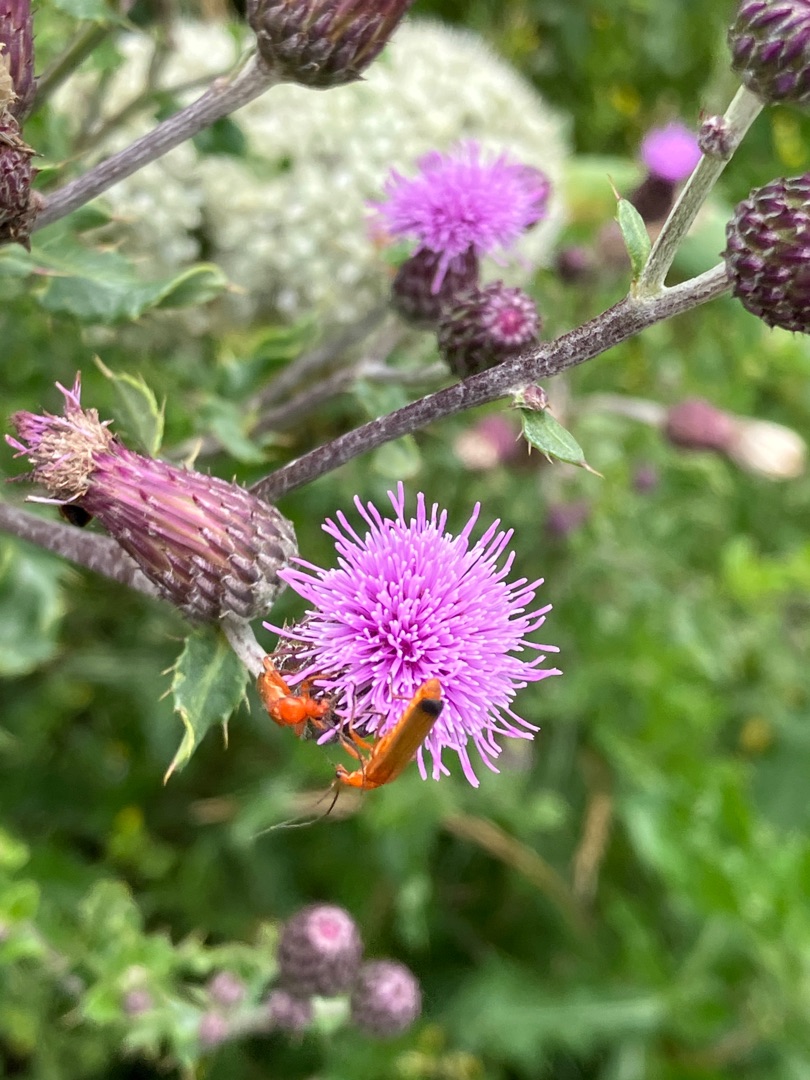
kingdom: Animalia
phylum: Arthropoda
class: Insecta
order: Coleoptera
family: Cantharidae
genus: Rhagonycha
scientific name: Rhagonycha fulva
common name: Præstebille
